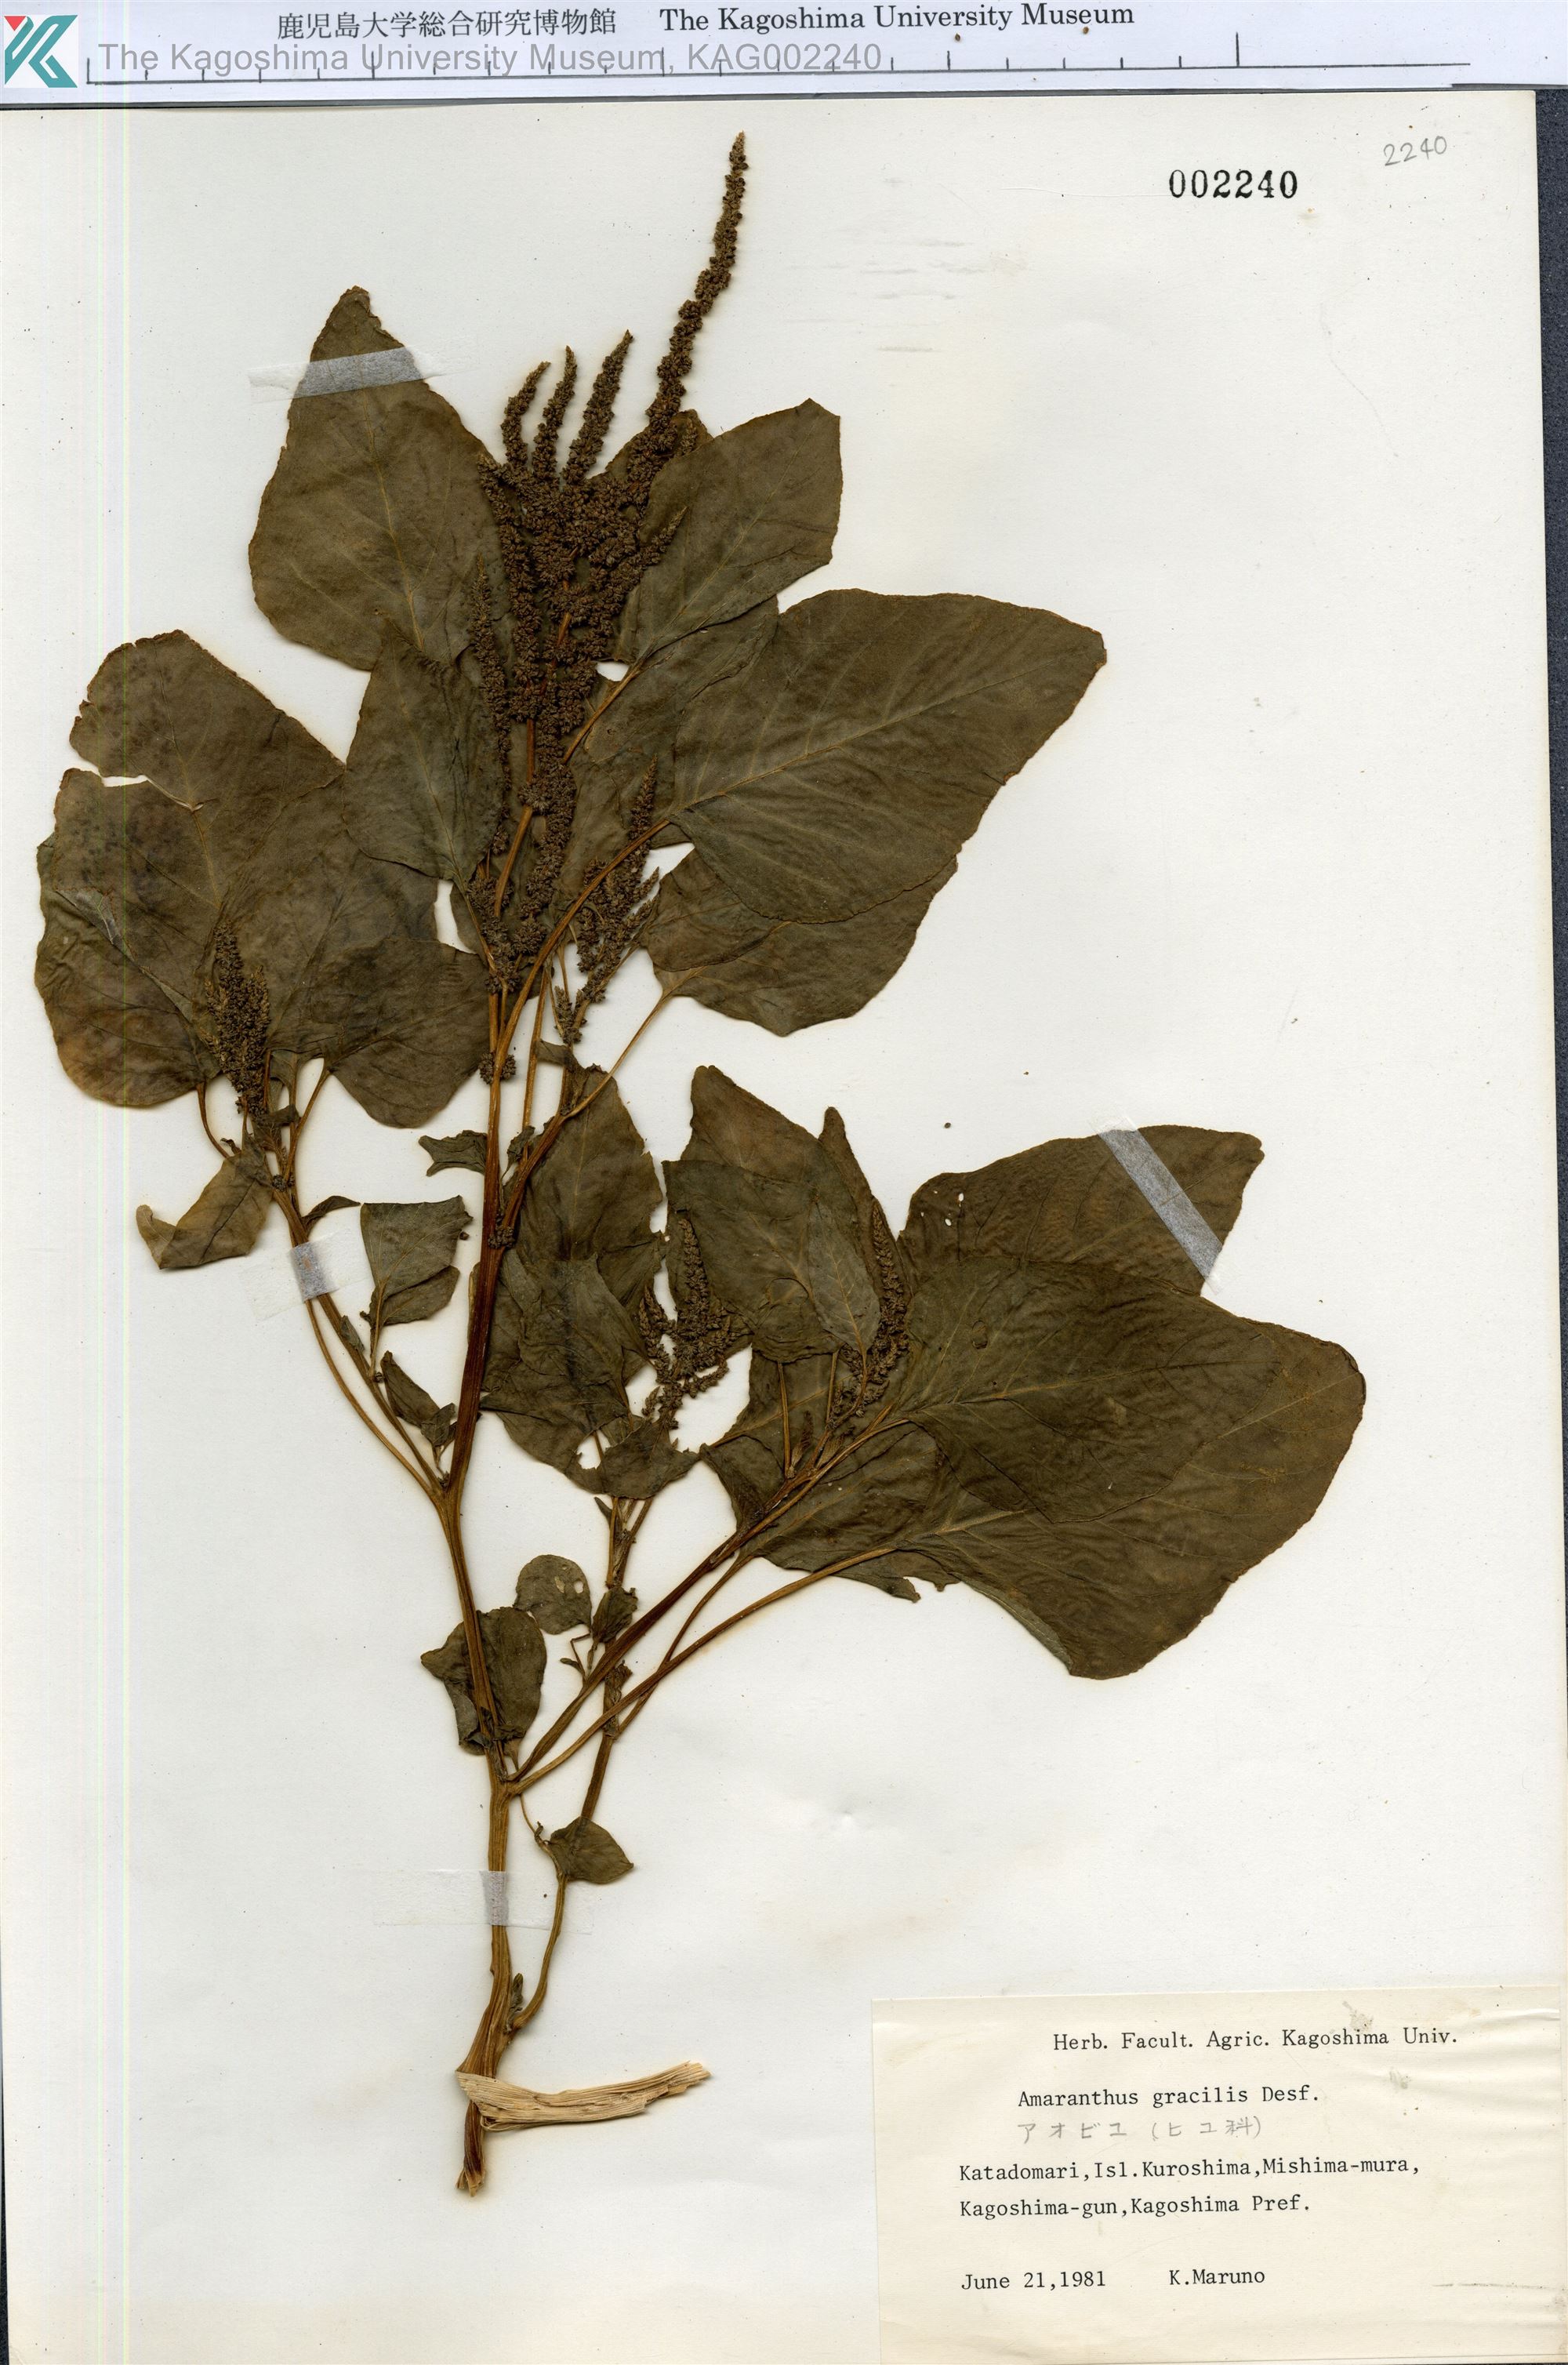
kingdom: Plantae
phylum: Tracheophyta
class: Magnoliopsida
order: Caryophyllales
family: Amaranthaceae
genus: Amaranthus
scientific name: Amaranthus viridis
